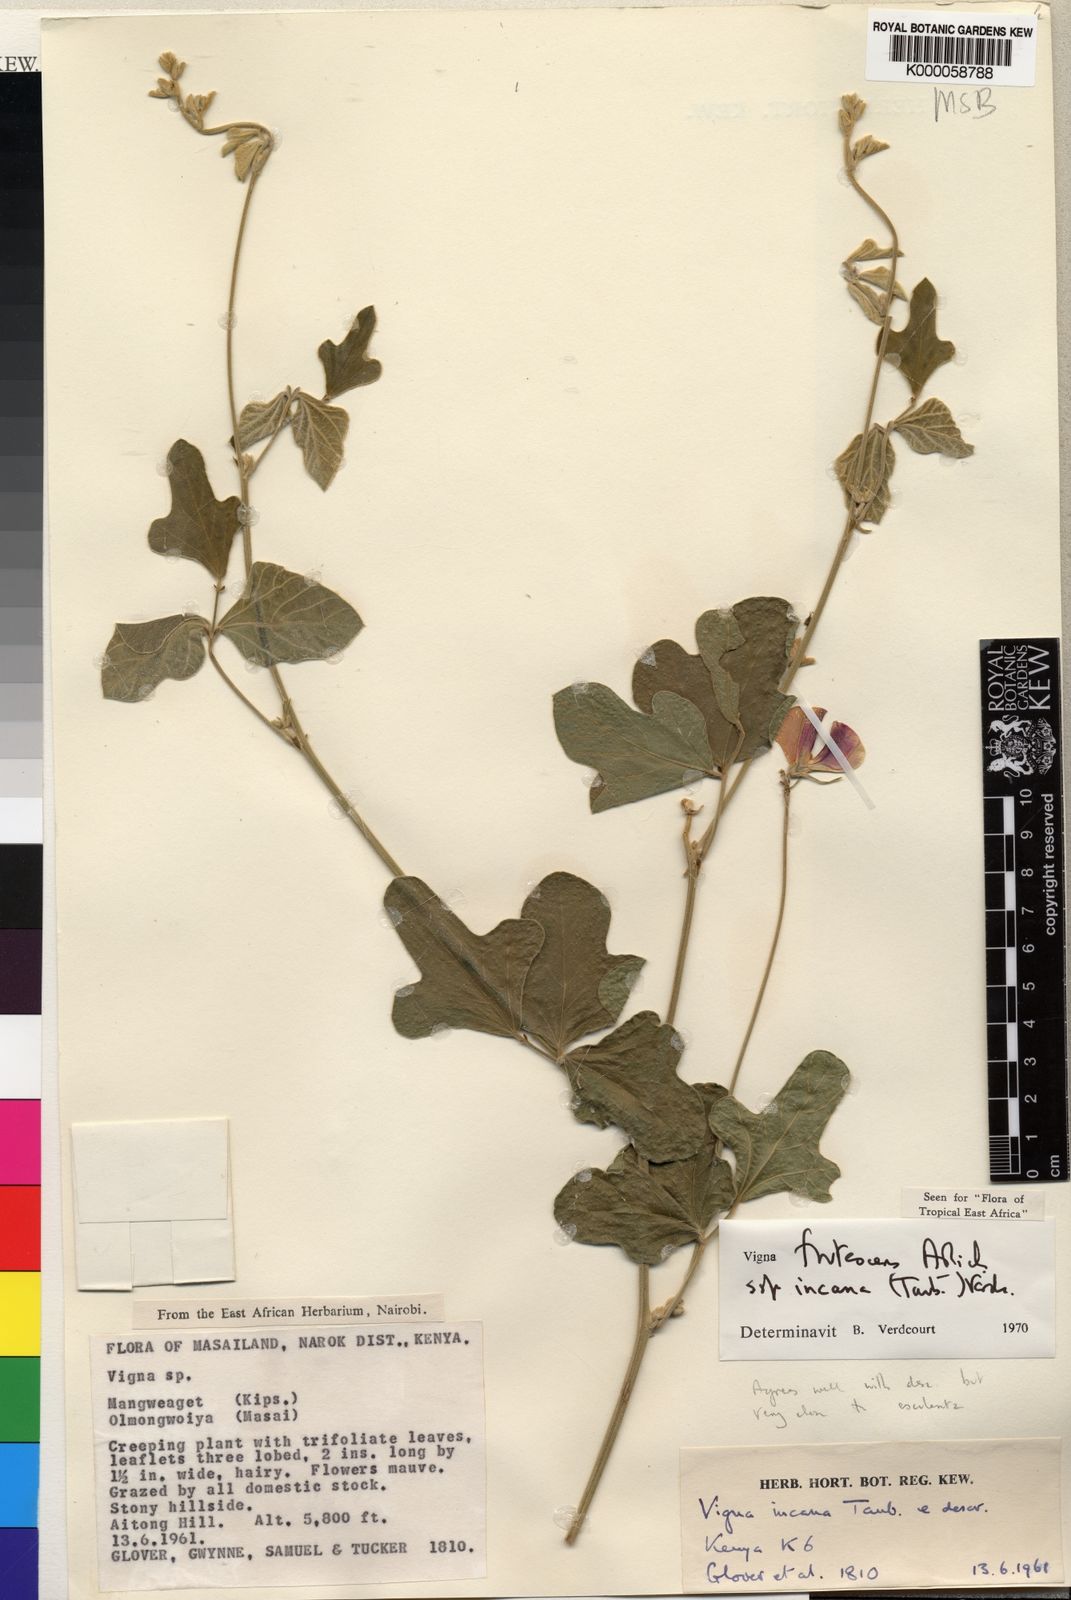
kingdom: Plantae
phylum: Tracheophyta
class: Magnoliopsida
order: Fabales
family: Fabaceae
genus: Vigna
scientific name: Vigna frutescens
